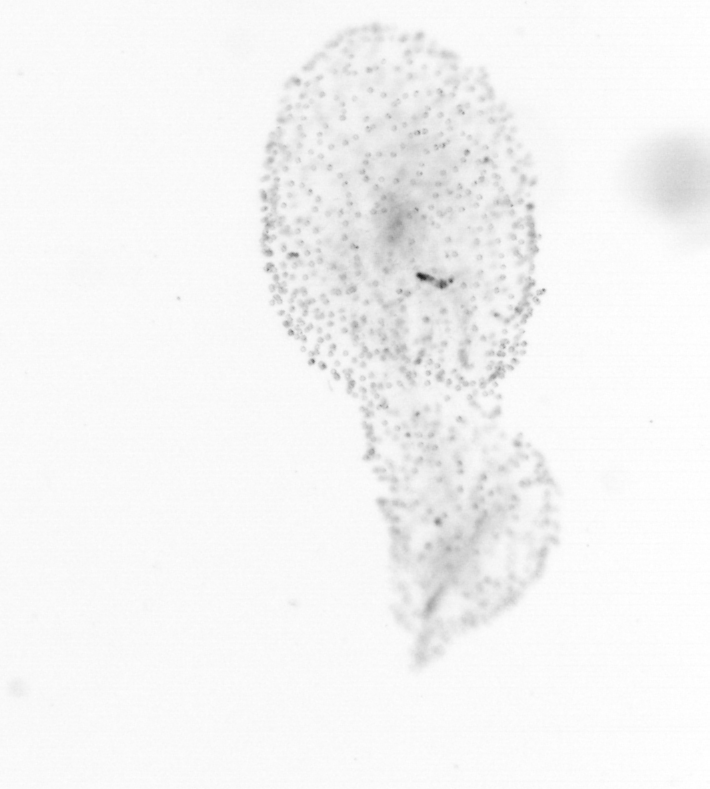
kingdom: Chromista
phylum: Ochrophyta
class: Bacillariophyceae
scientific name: Bacillariophyceae
